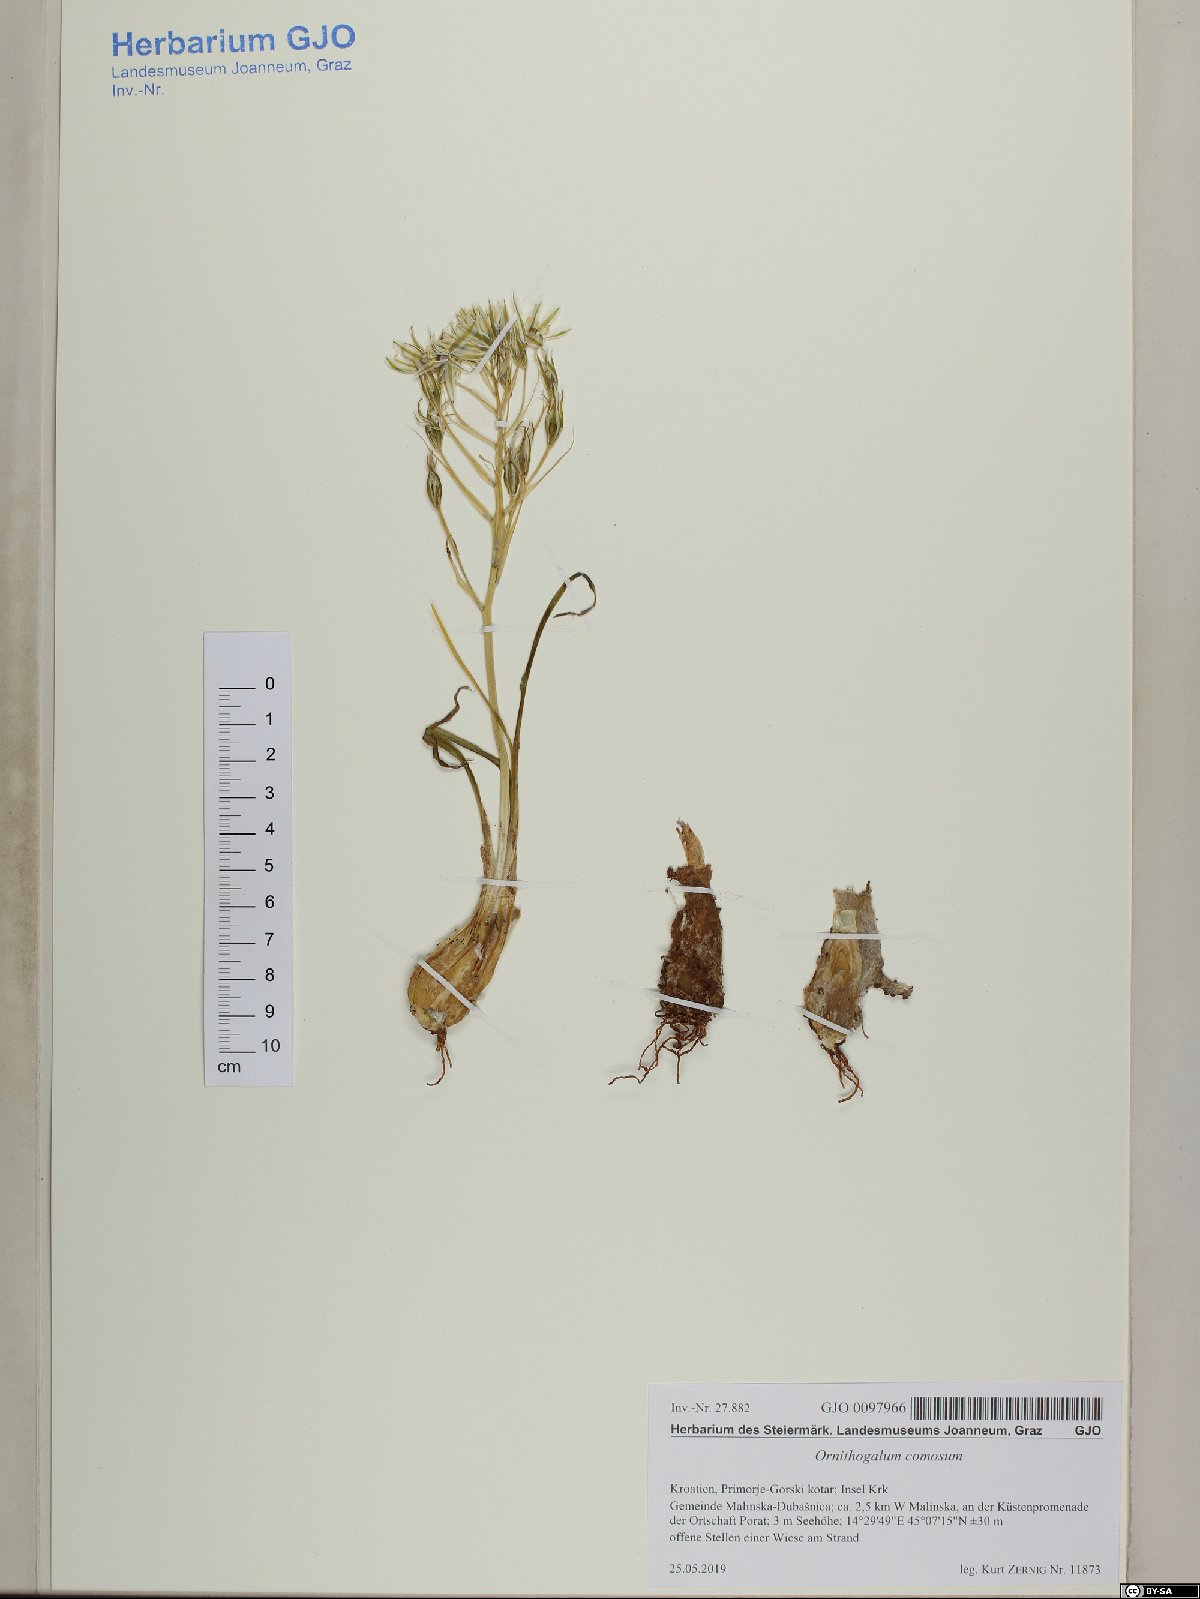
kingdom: Plantae
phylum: Tracheophyta
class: Liliopsida
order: Asparagales
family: Asparagaceae
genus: Ornithogalum
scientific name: Ornithogalum comosum
